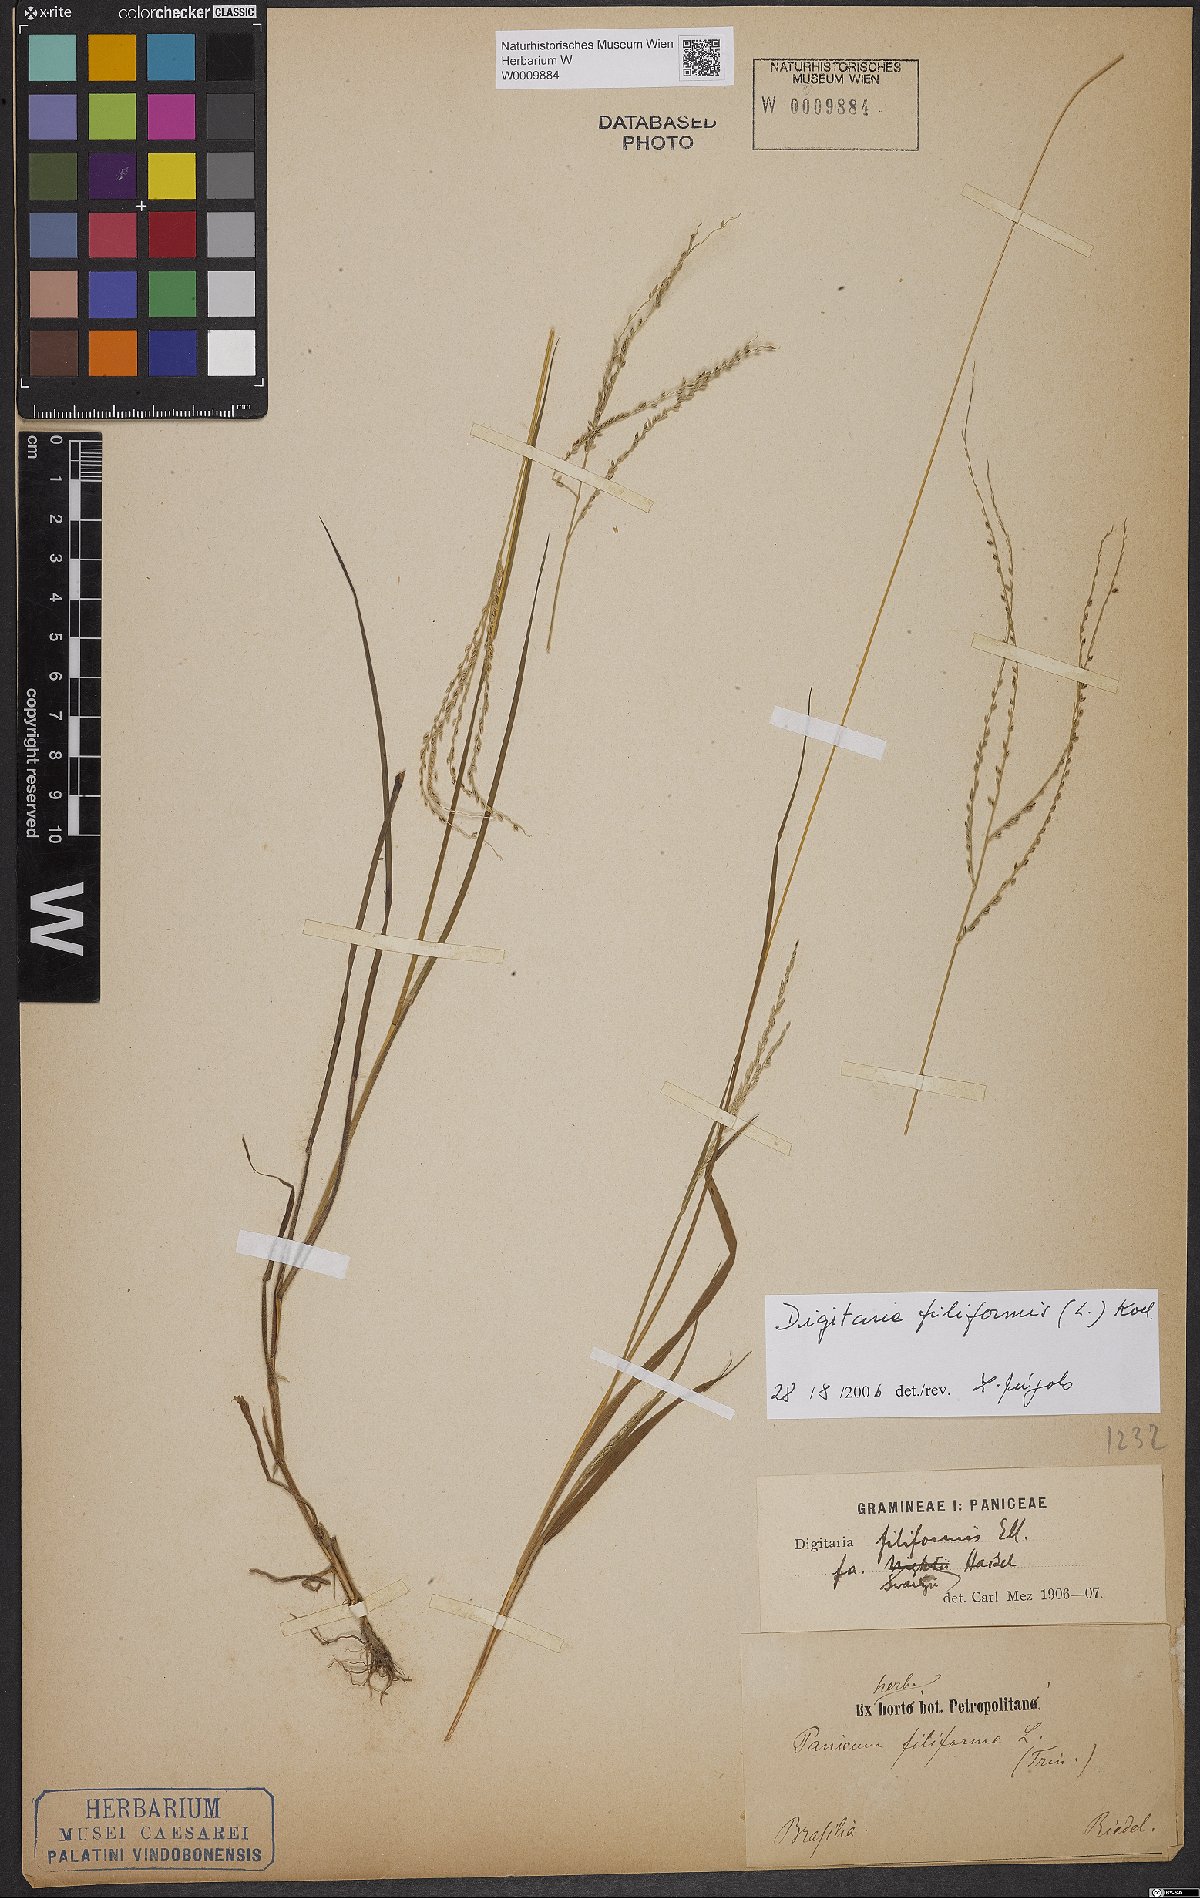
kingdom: Plantae
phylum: Tracheophyta
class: Liliopsida
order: Poales
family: Poaceae
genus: Digitaria
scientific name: Digitaria filiformis
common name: Slender crabgrass
